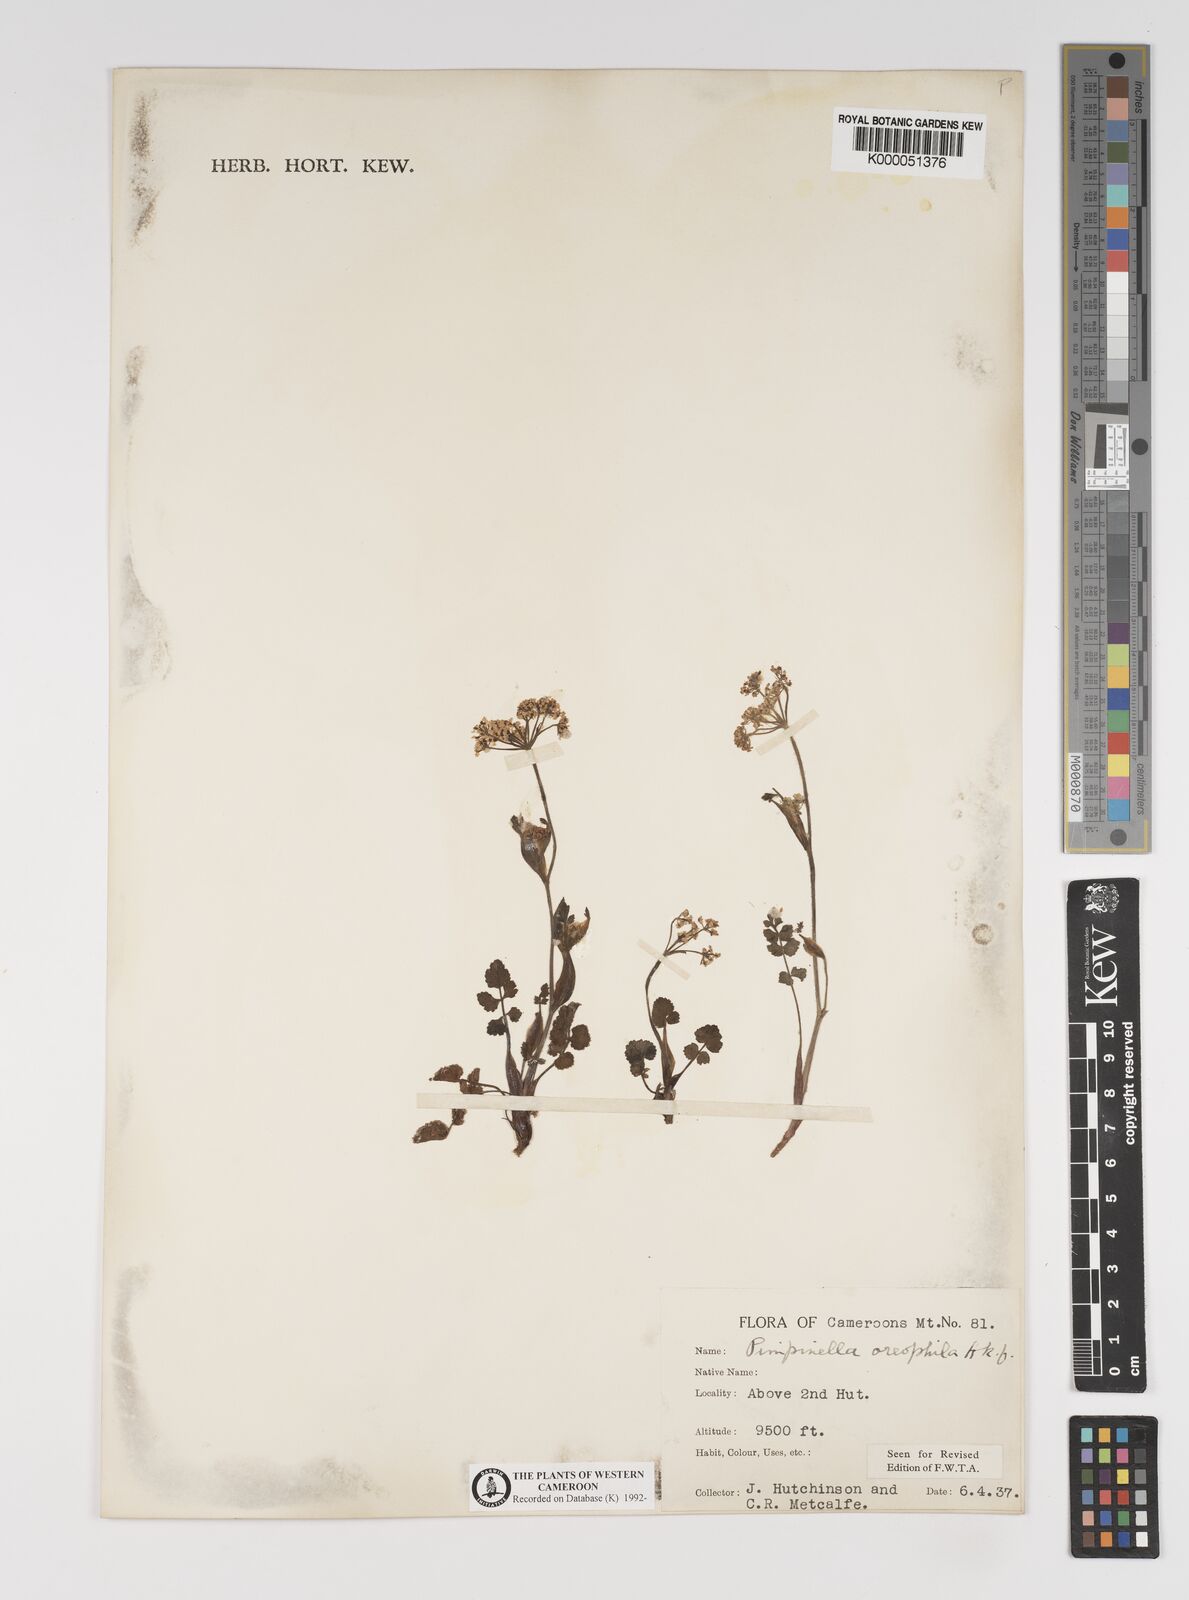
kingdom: Plantae
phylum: Tracheophyta
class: Magnoliopsida
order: Apiales
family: Apiaceae
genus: Pimpinella
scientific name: Pimpinella oreophila
